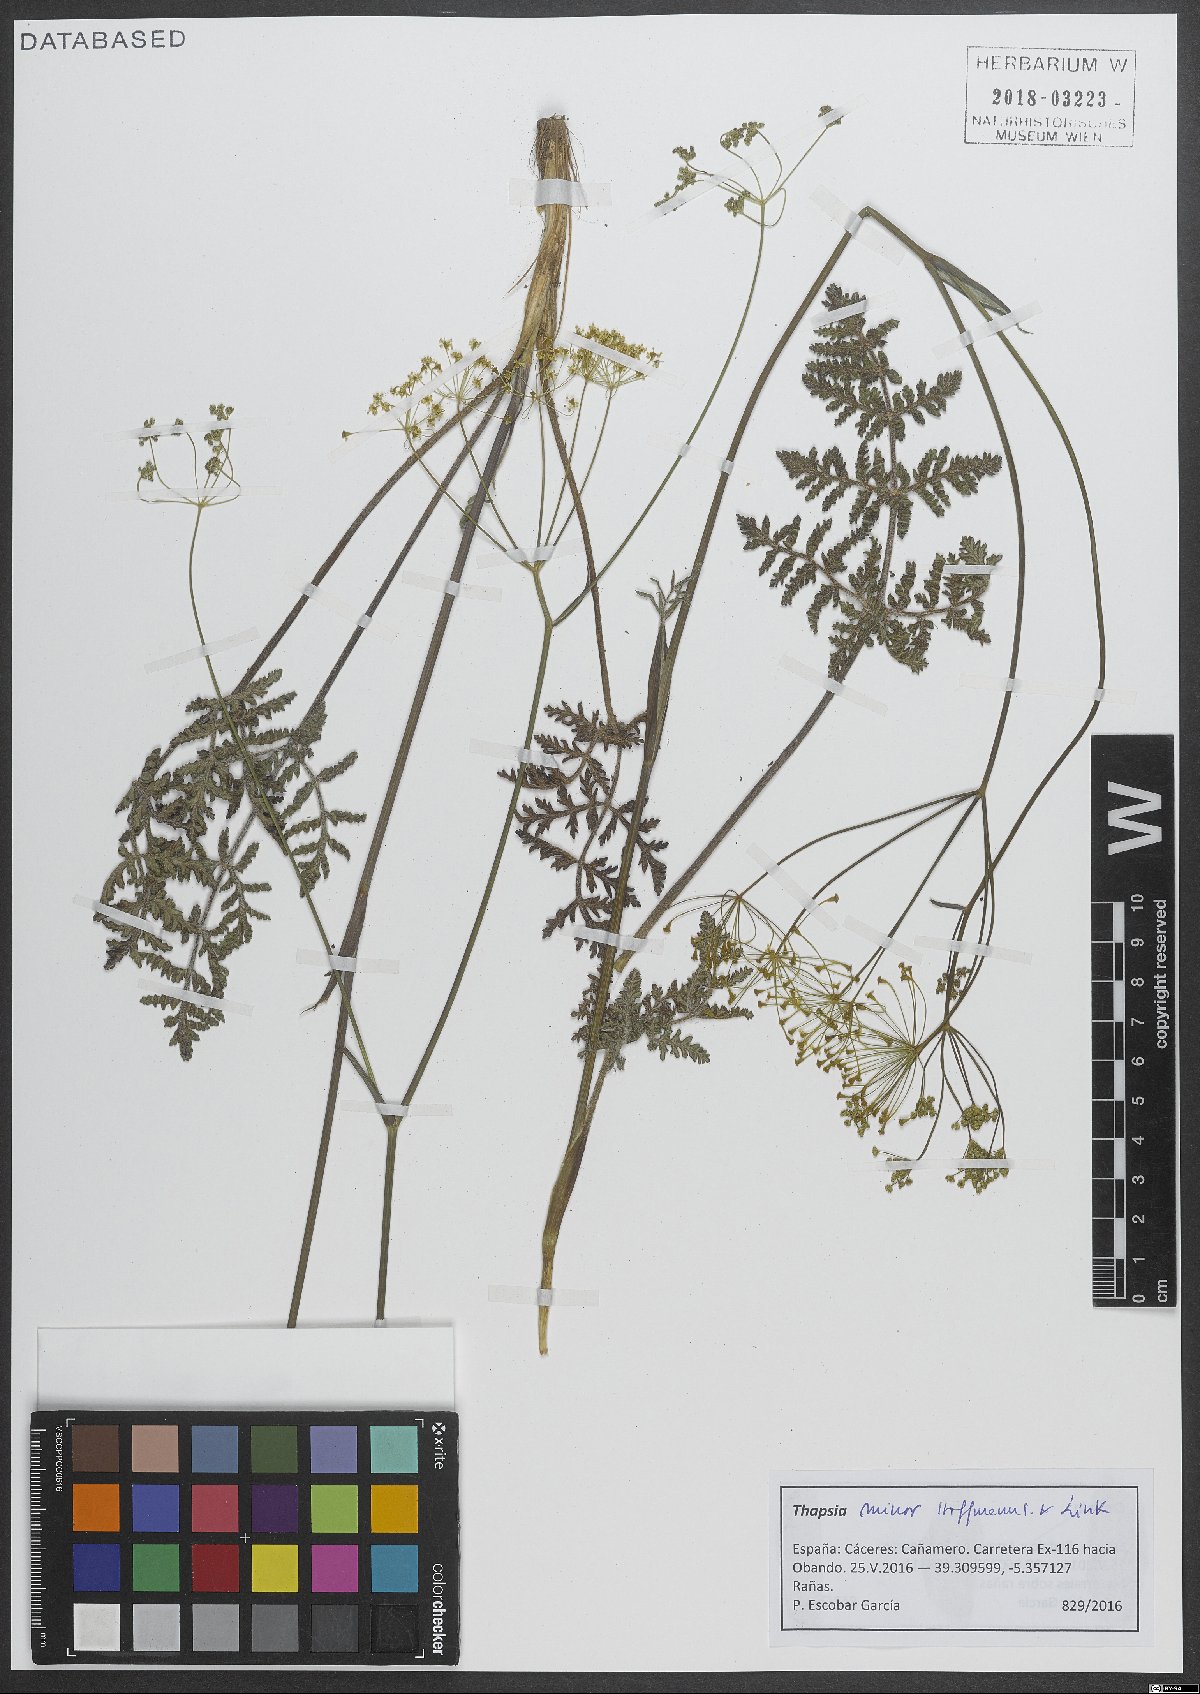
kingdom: Plantae
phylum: Tracheophyta
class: Magnoliopsida
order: Apiales
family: Apiaceae
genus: Thapsia
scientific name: Thapsia minor
